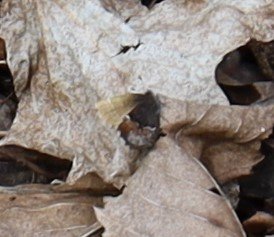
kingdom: Animalia
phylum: Arthropoda
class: Insecta
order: Lepidoptera
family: Lycaenidae
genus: Incisalia
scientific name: Incisalia henrici
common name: Henry's Elfin
